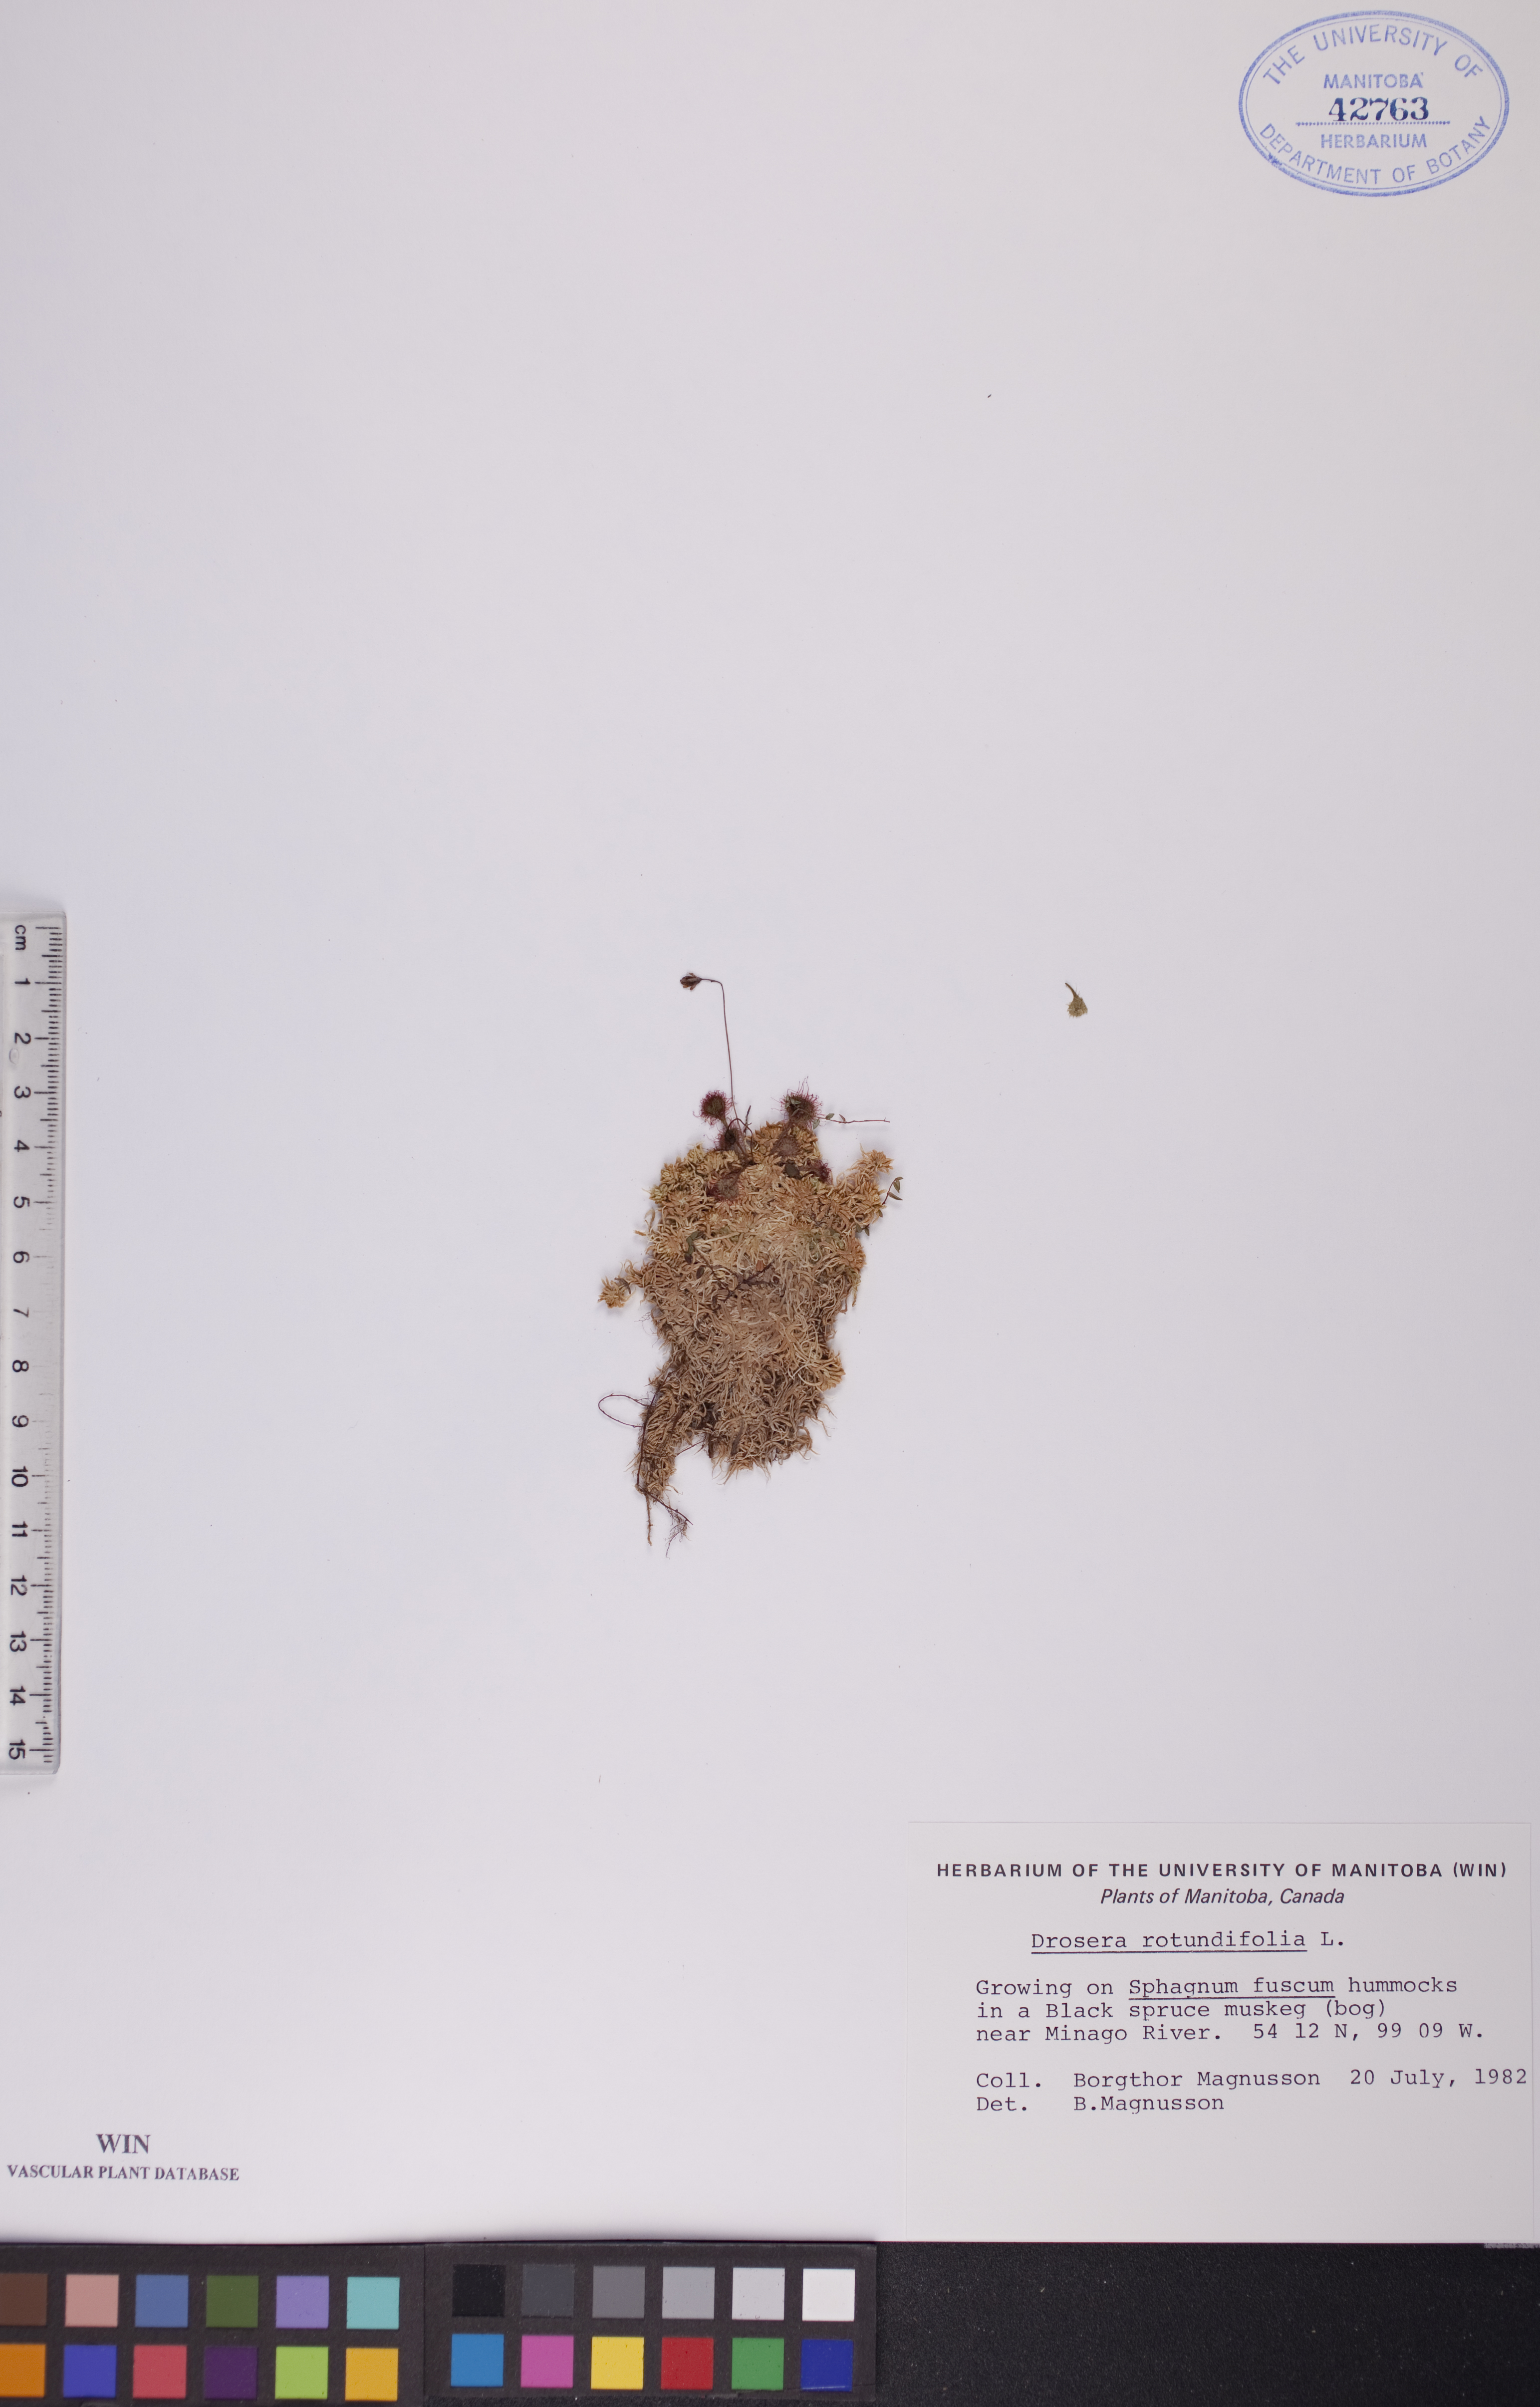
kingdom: Plantae
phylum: Tracheophyta
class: Magnoliopsida
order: Caryophyllales
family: Droseraceae
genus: Drosera
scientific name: Drosera rotundifolia
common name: Round-leaved sundew
